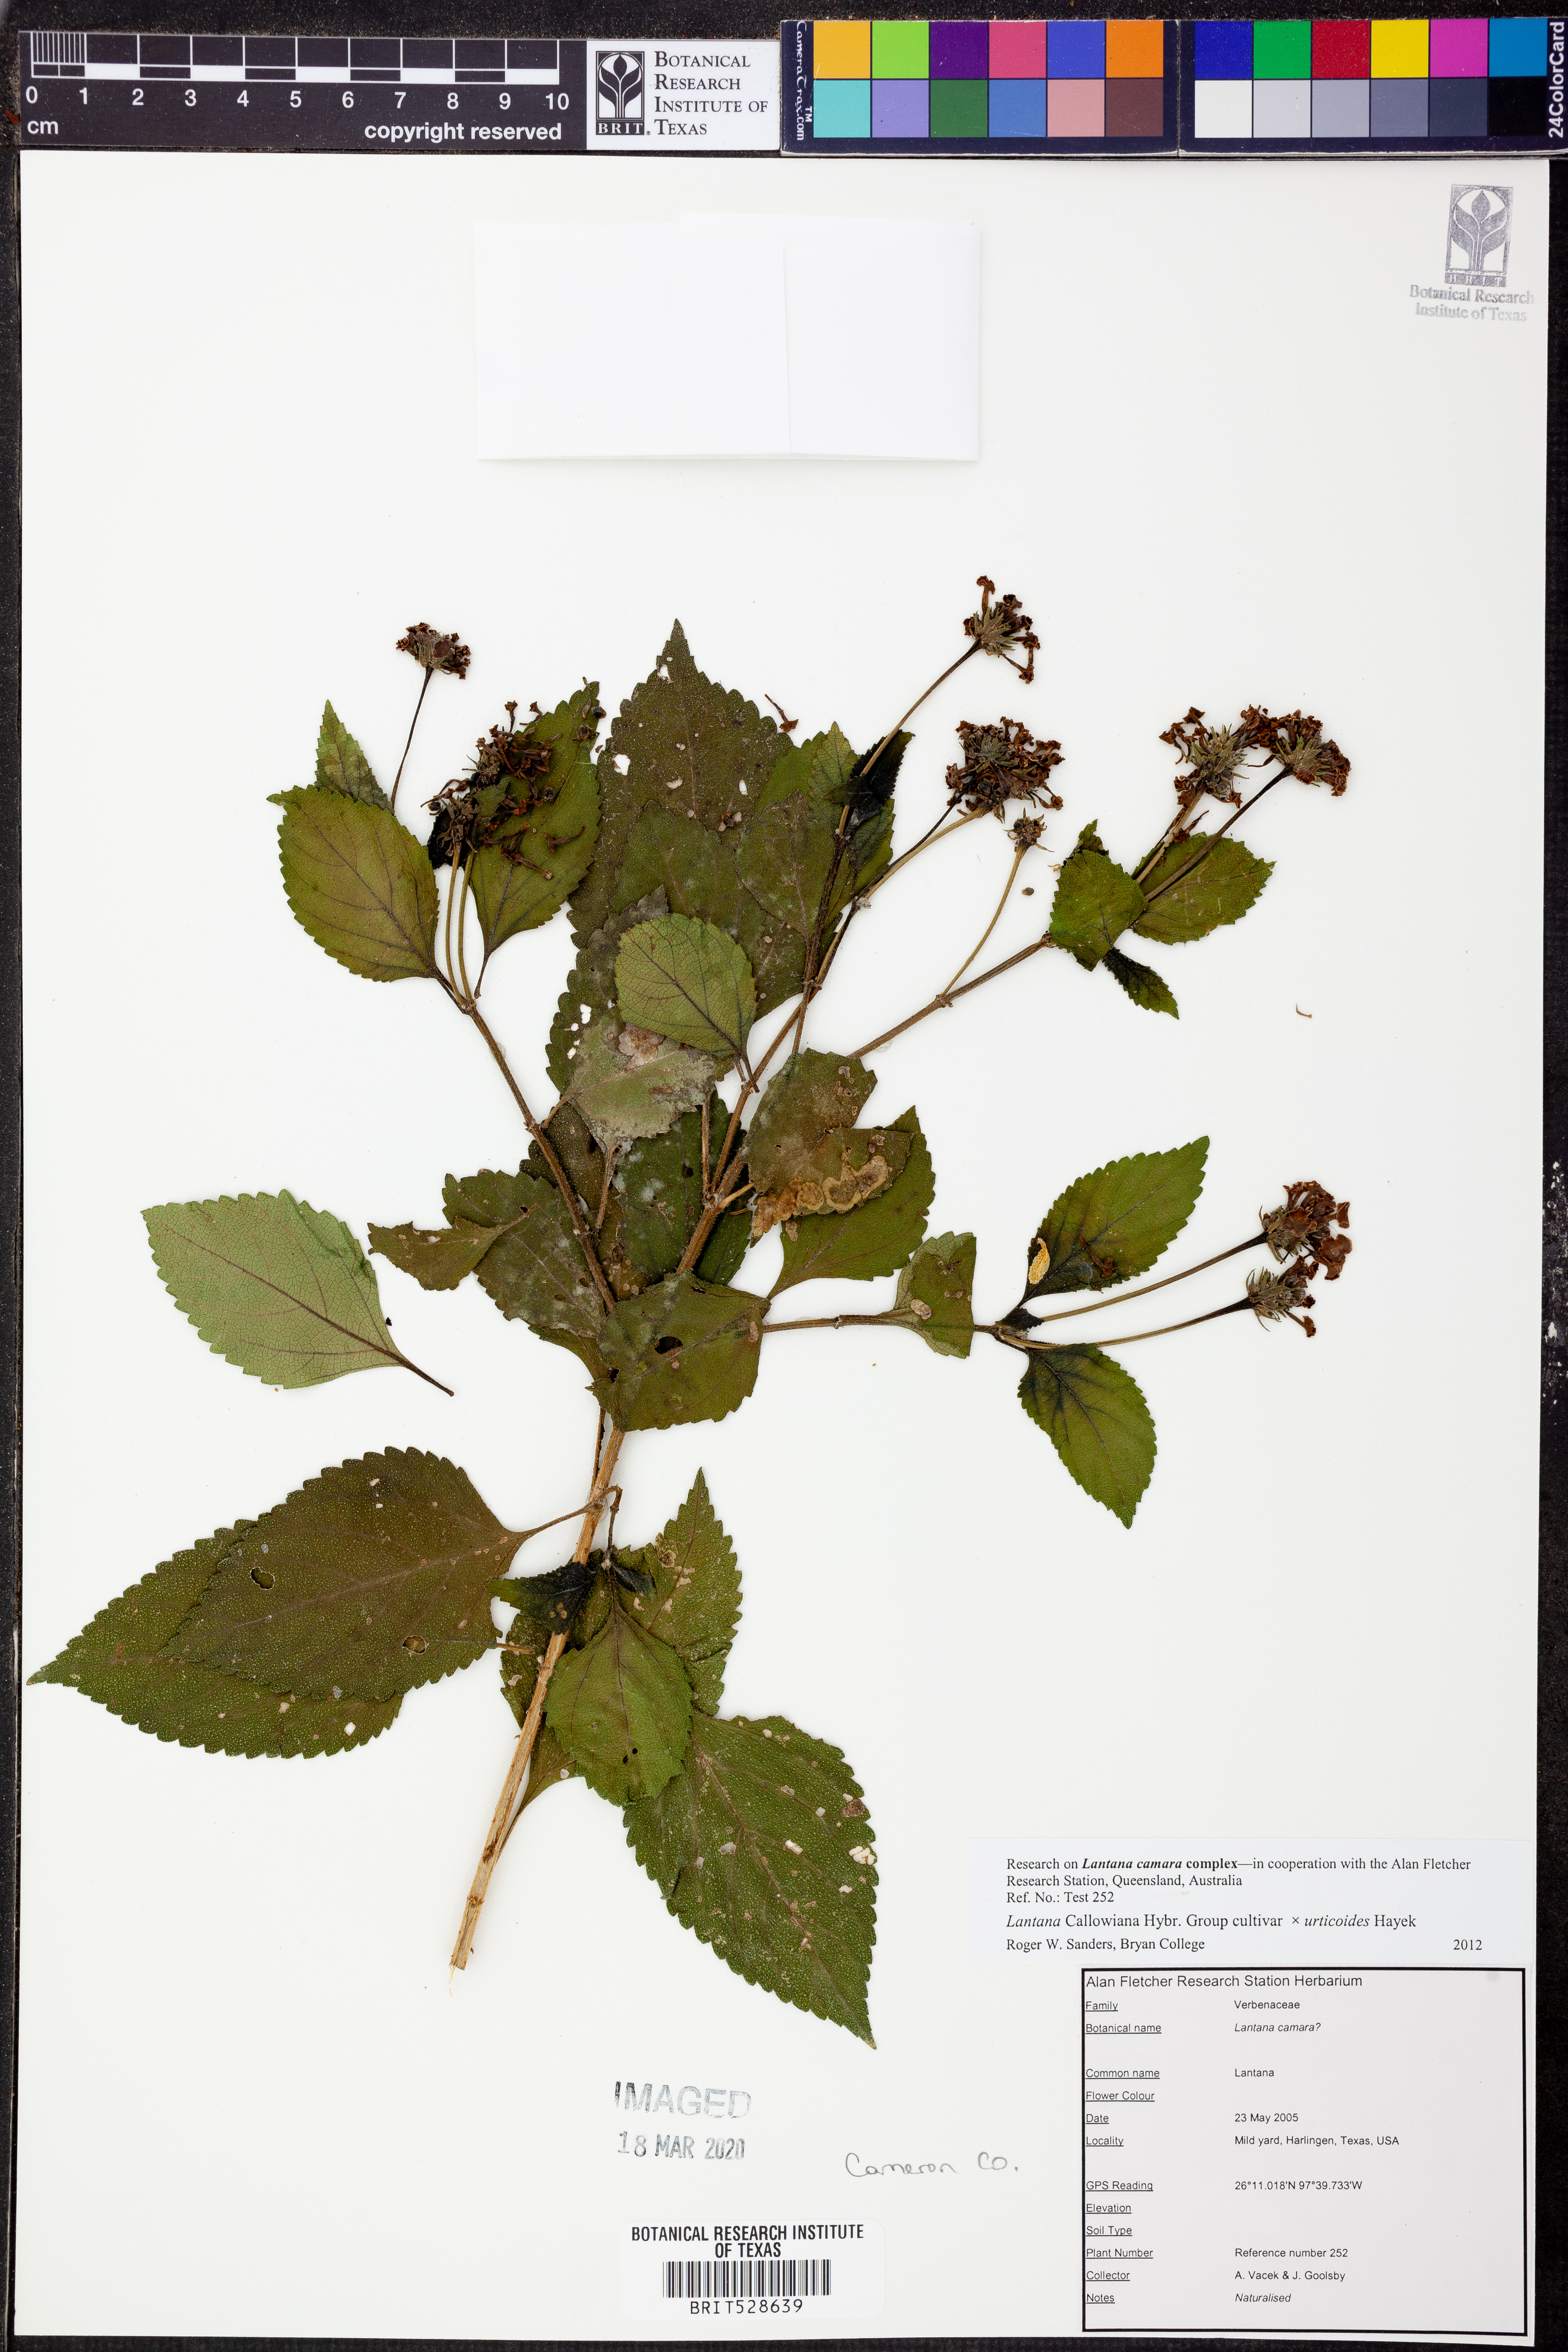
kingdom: Plantae
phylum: Tracheophyta
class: Magnoliopsida
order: Lamiales
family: Verbenaceae
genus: Lantana
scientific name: Lantana
